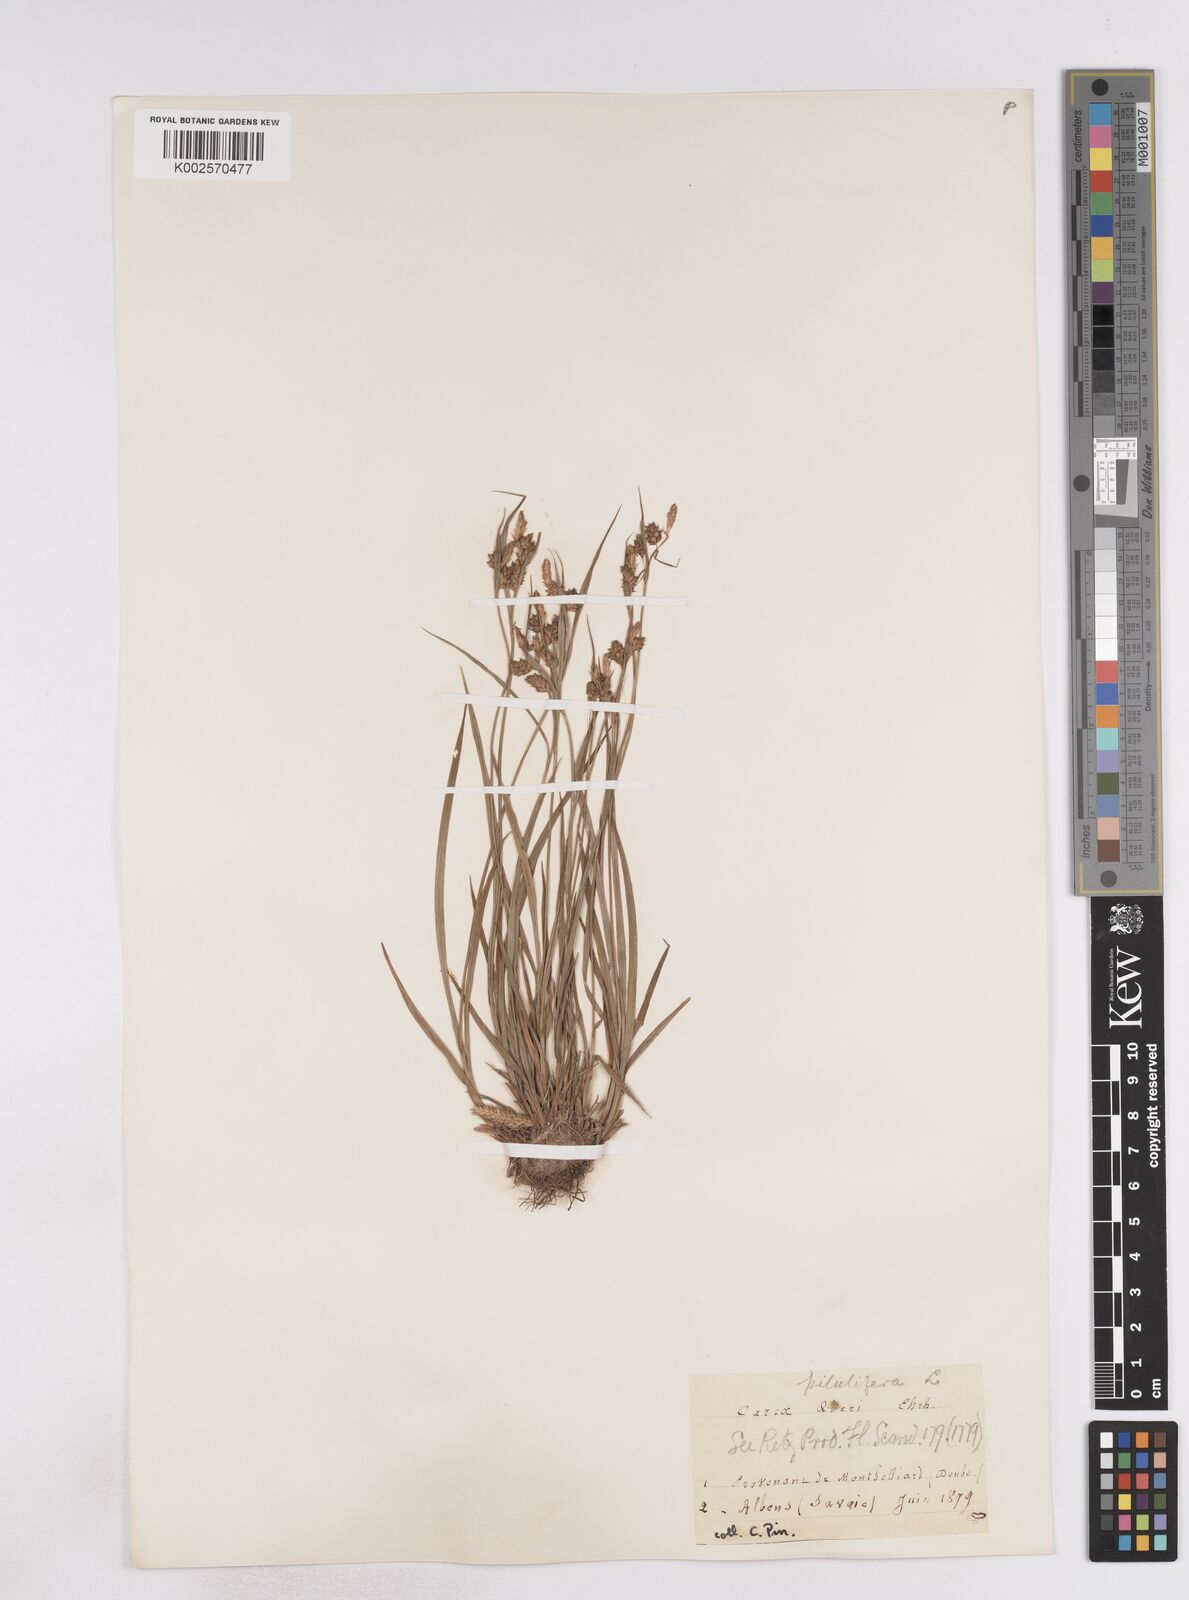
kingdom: Plantae
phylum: Tracheophyta
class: Liliopsida
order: Poales
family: Cyperaceae
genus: Carex
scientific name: Carex pallescens
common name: Pale sedge
